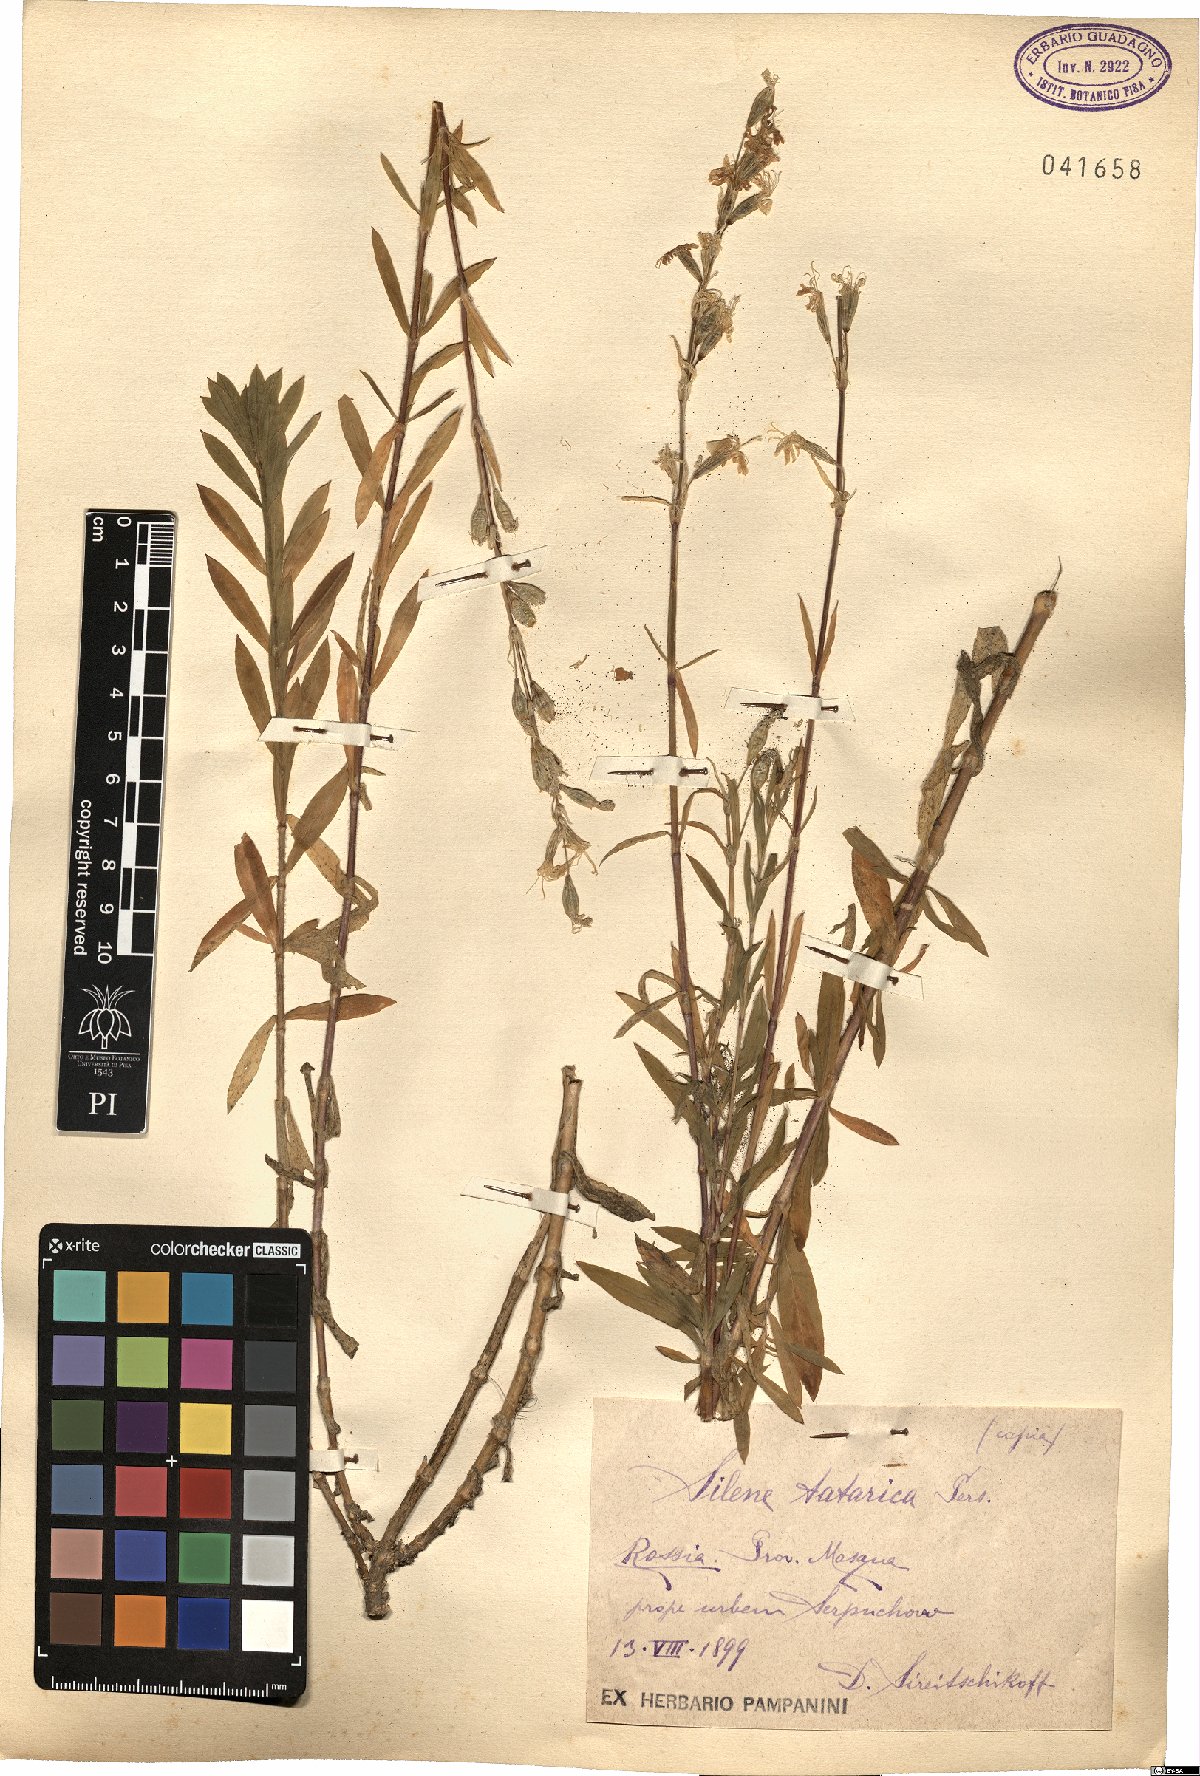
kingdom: Plantae
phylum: Tracheophyta
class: Magnoliopsida
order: Caryophyllales
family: Caryophyllaceae
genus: Silene
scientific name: Silene tatarica
